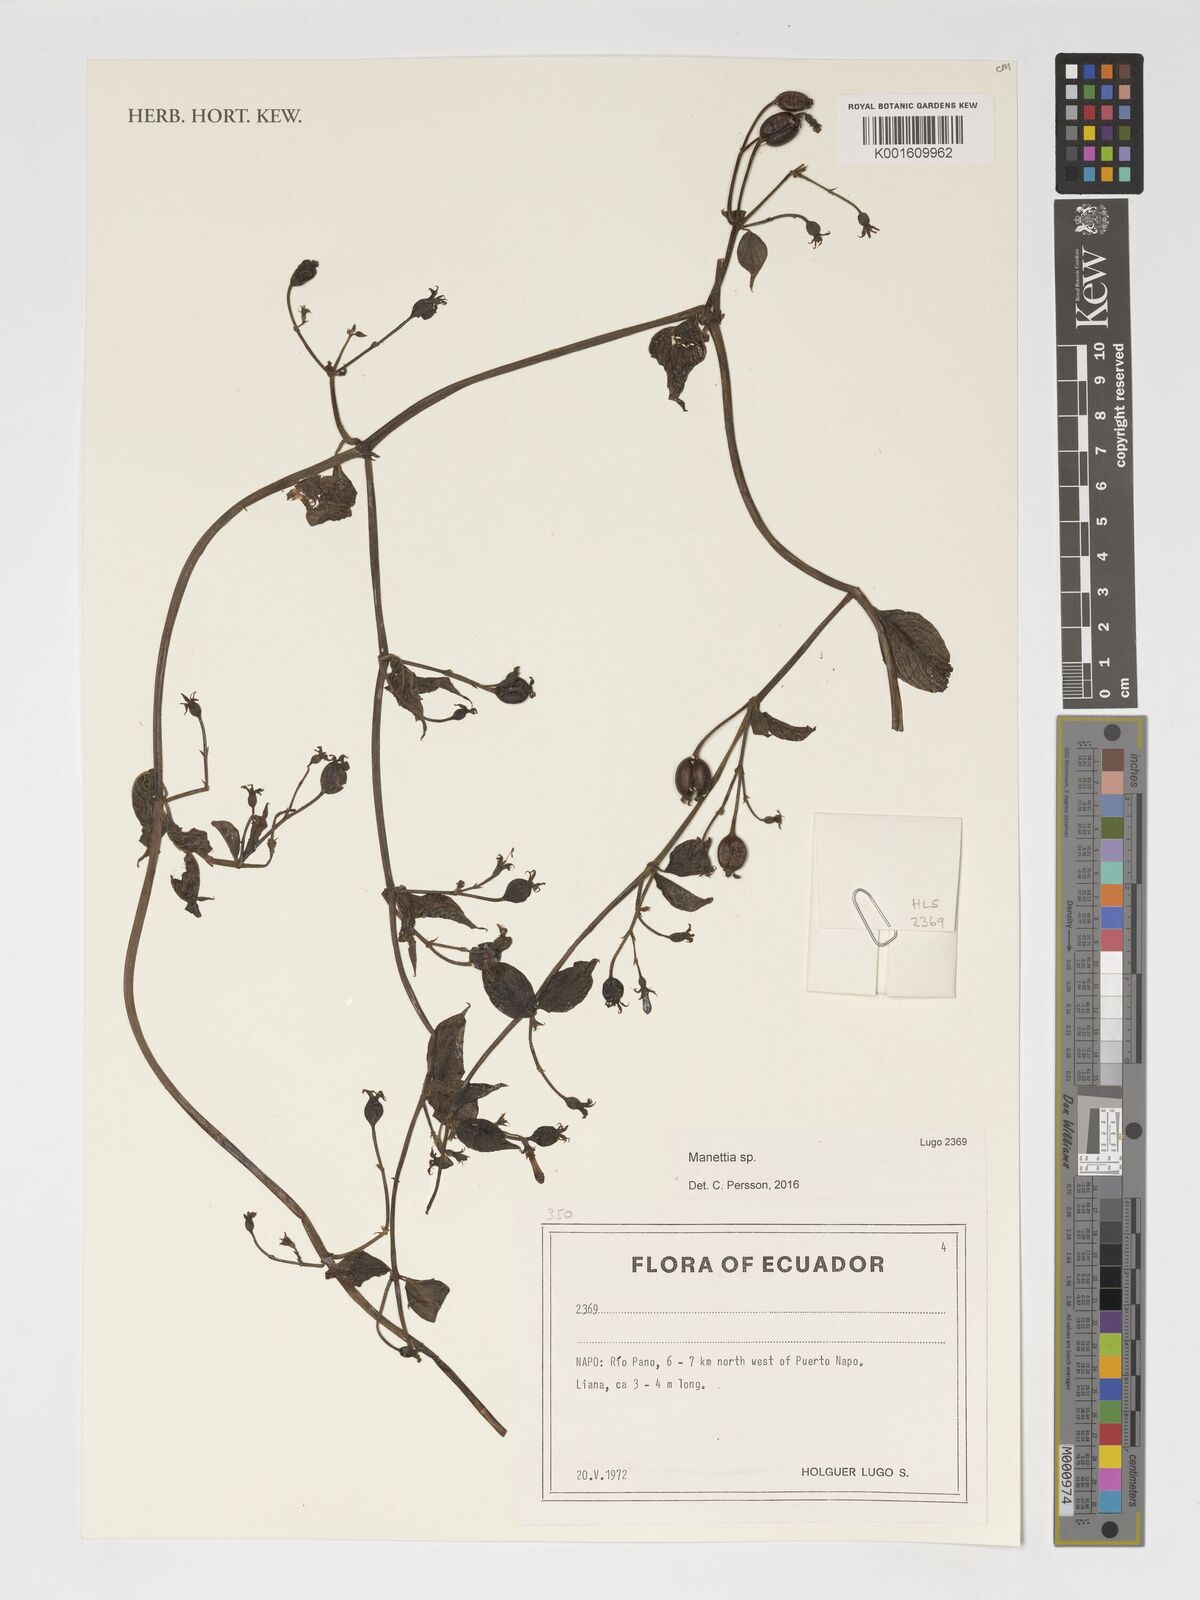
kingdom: Plantae
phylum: Tracheophyta
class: Magnoliopsida
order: Gentianales
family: Rubiaceae
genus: Manettia
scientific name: Manettia
